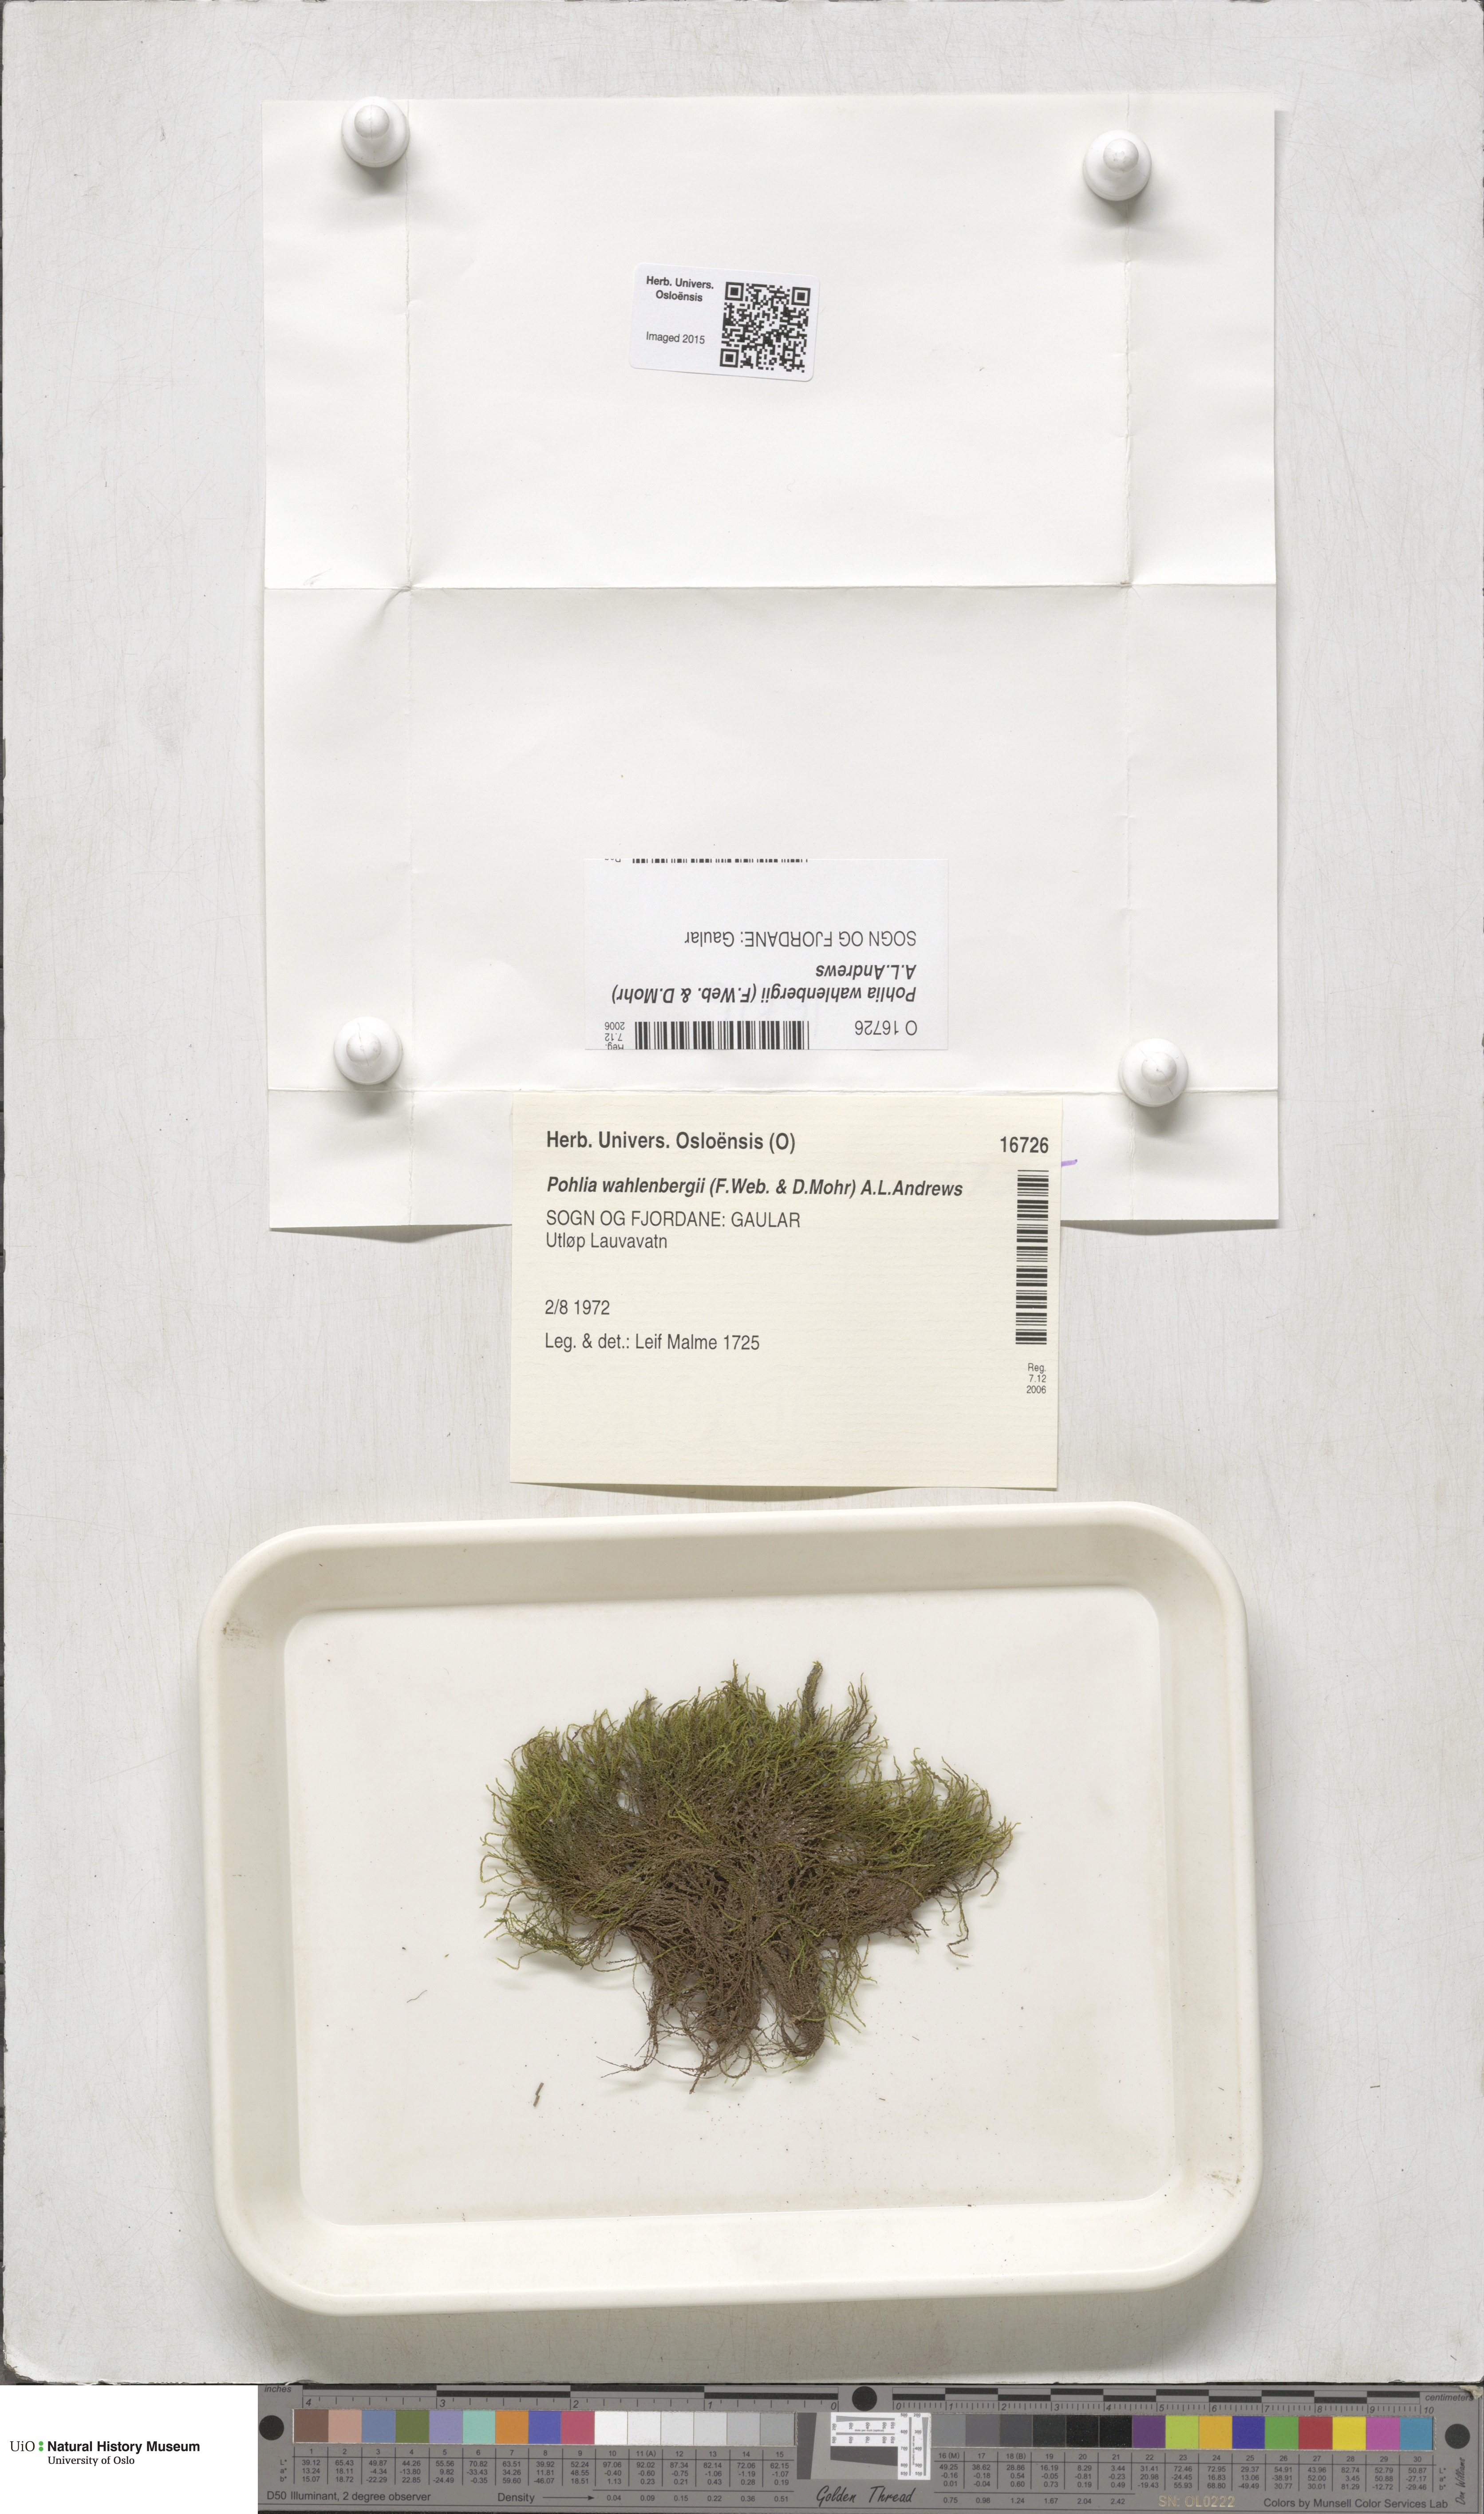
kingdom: Plantae
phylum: Bryophyta
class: Bryopsida
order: Bryales
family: Mniaceae
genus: Pohlia
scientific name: Pohlia wahlenbergii
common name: Wahlenberg's nodding moss
